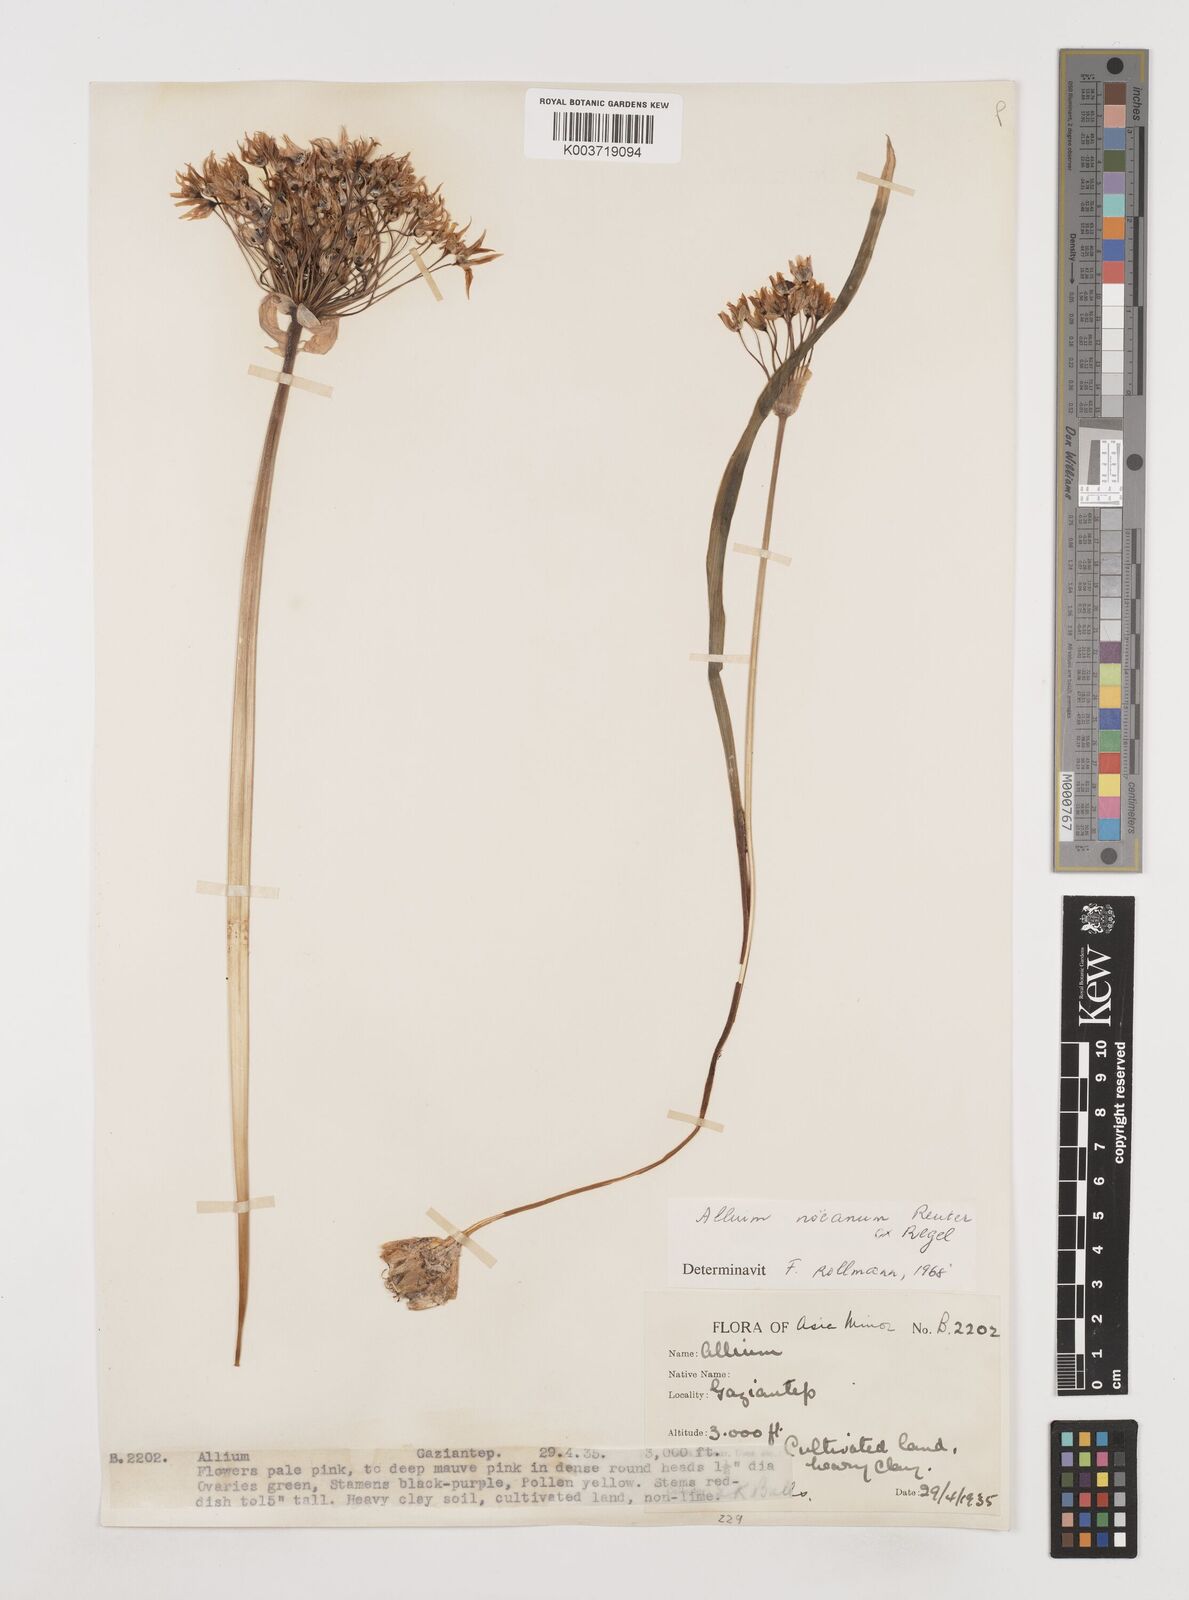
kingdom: Plantae
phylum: Tracheophyta
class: Liliopsida
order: Asparagales
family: Amaryllidaceae
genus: Allium
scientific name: Allium noeanum
